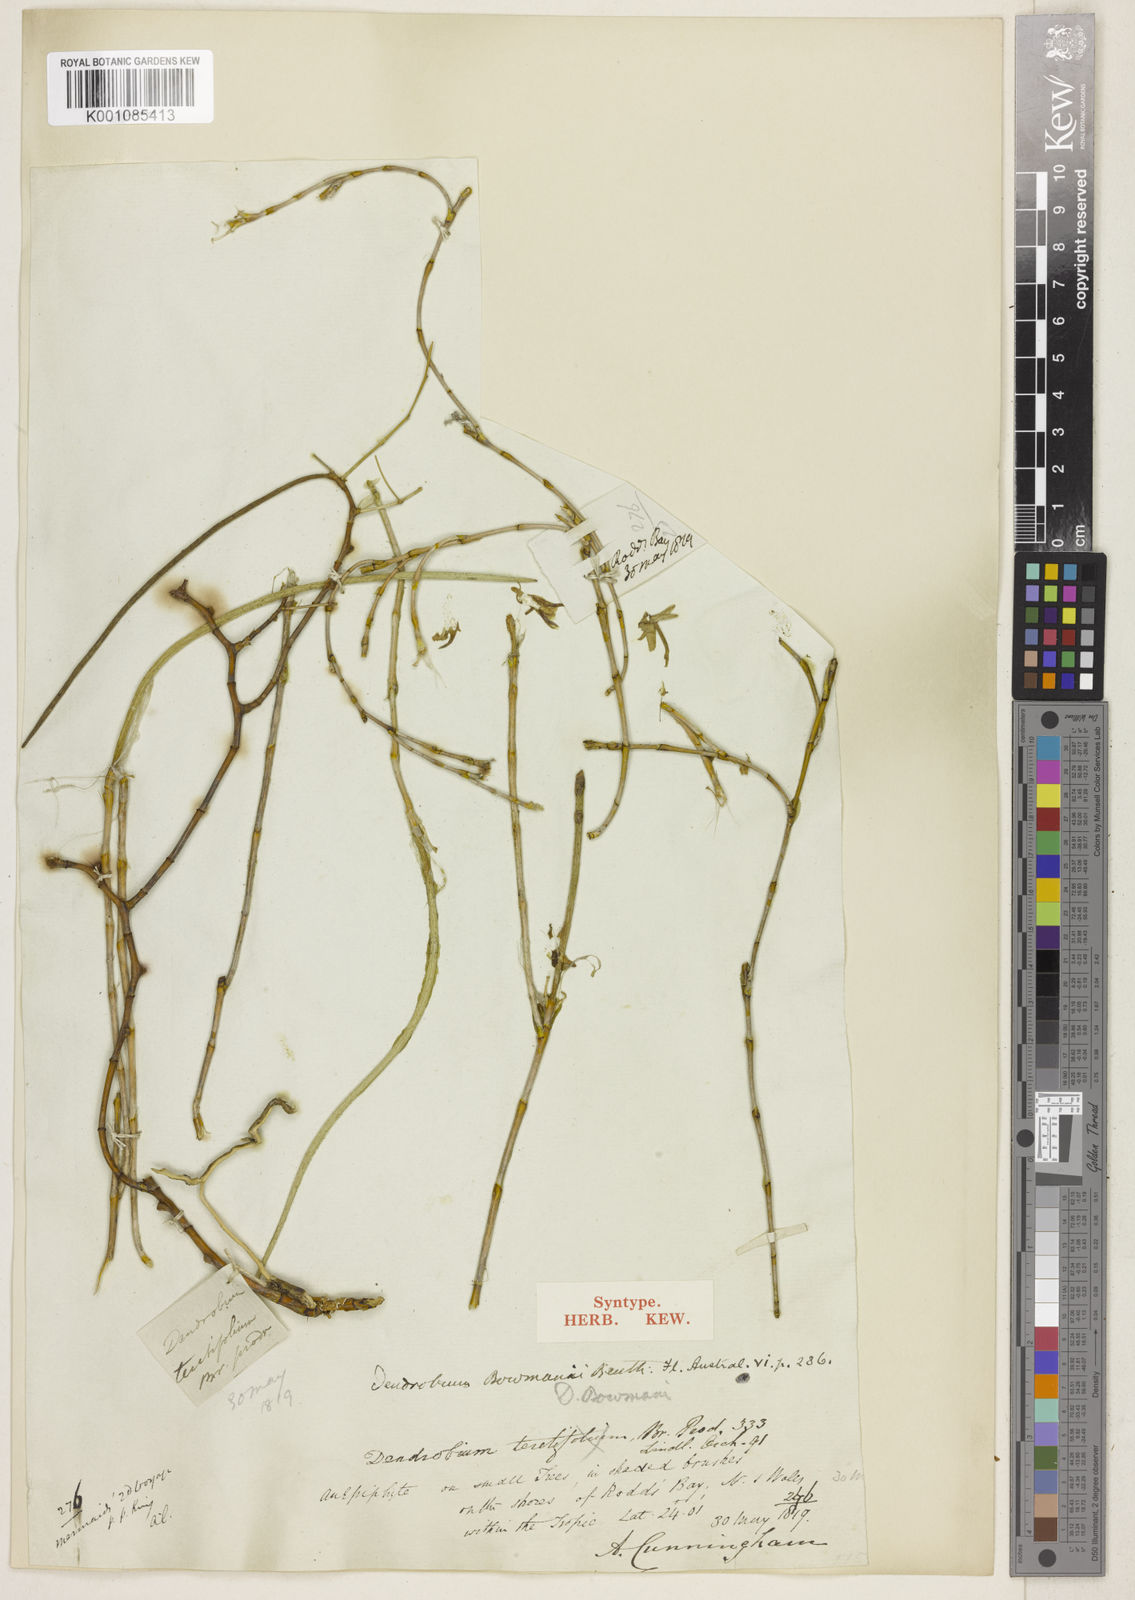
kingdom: Plantae
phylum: Tracheophyta
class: Liliopsida
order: Asparagales
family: Orchidaceae
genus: Dendrobium
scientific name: Dendrobium bowmanii
